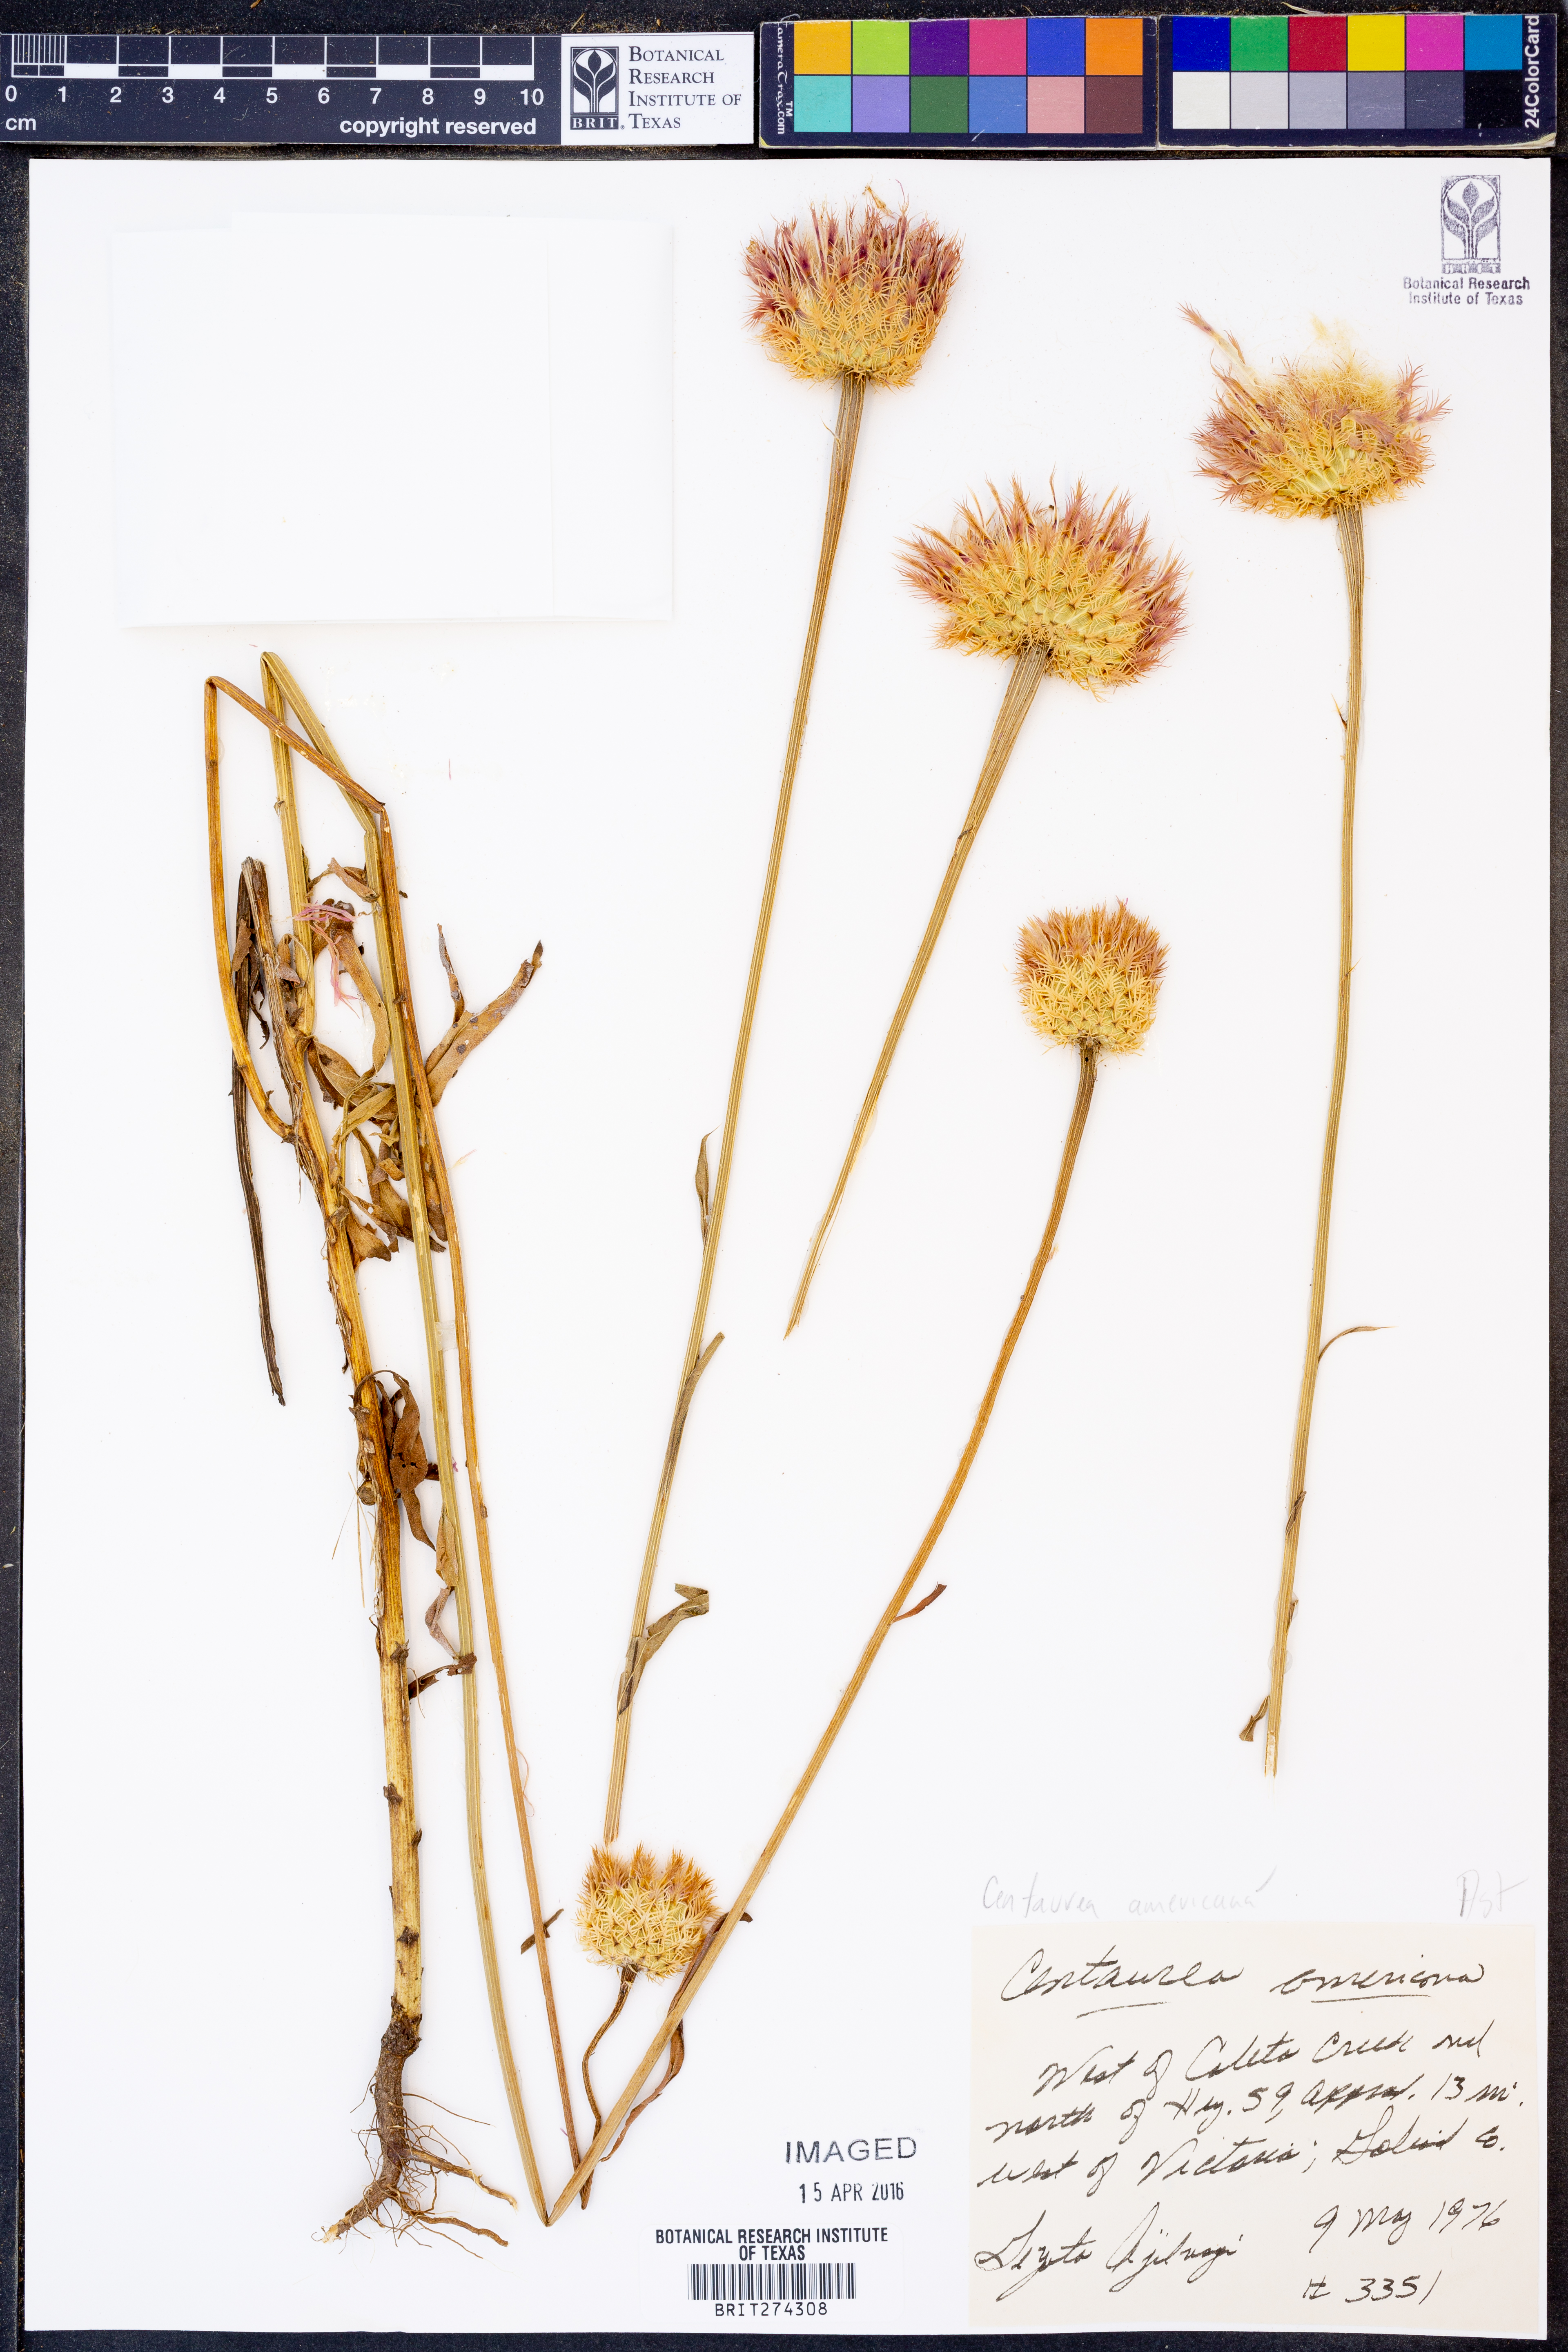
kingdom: Plantae
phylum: Tracheophyta
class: Magnoliopsida
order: Asterales
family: Asteraceae
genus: Plectocephalus
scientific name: Plectocephalus americanus
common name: American basket-flower
